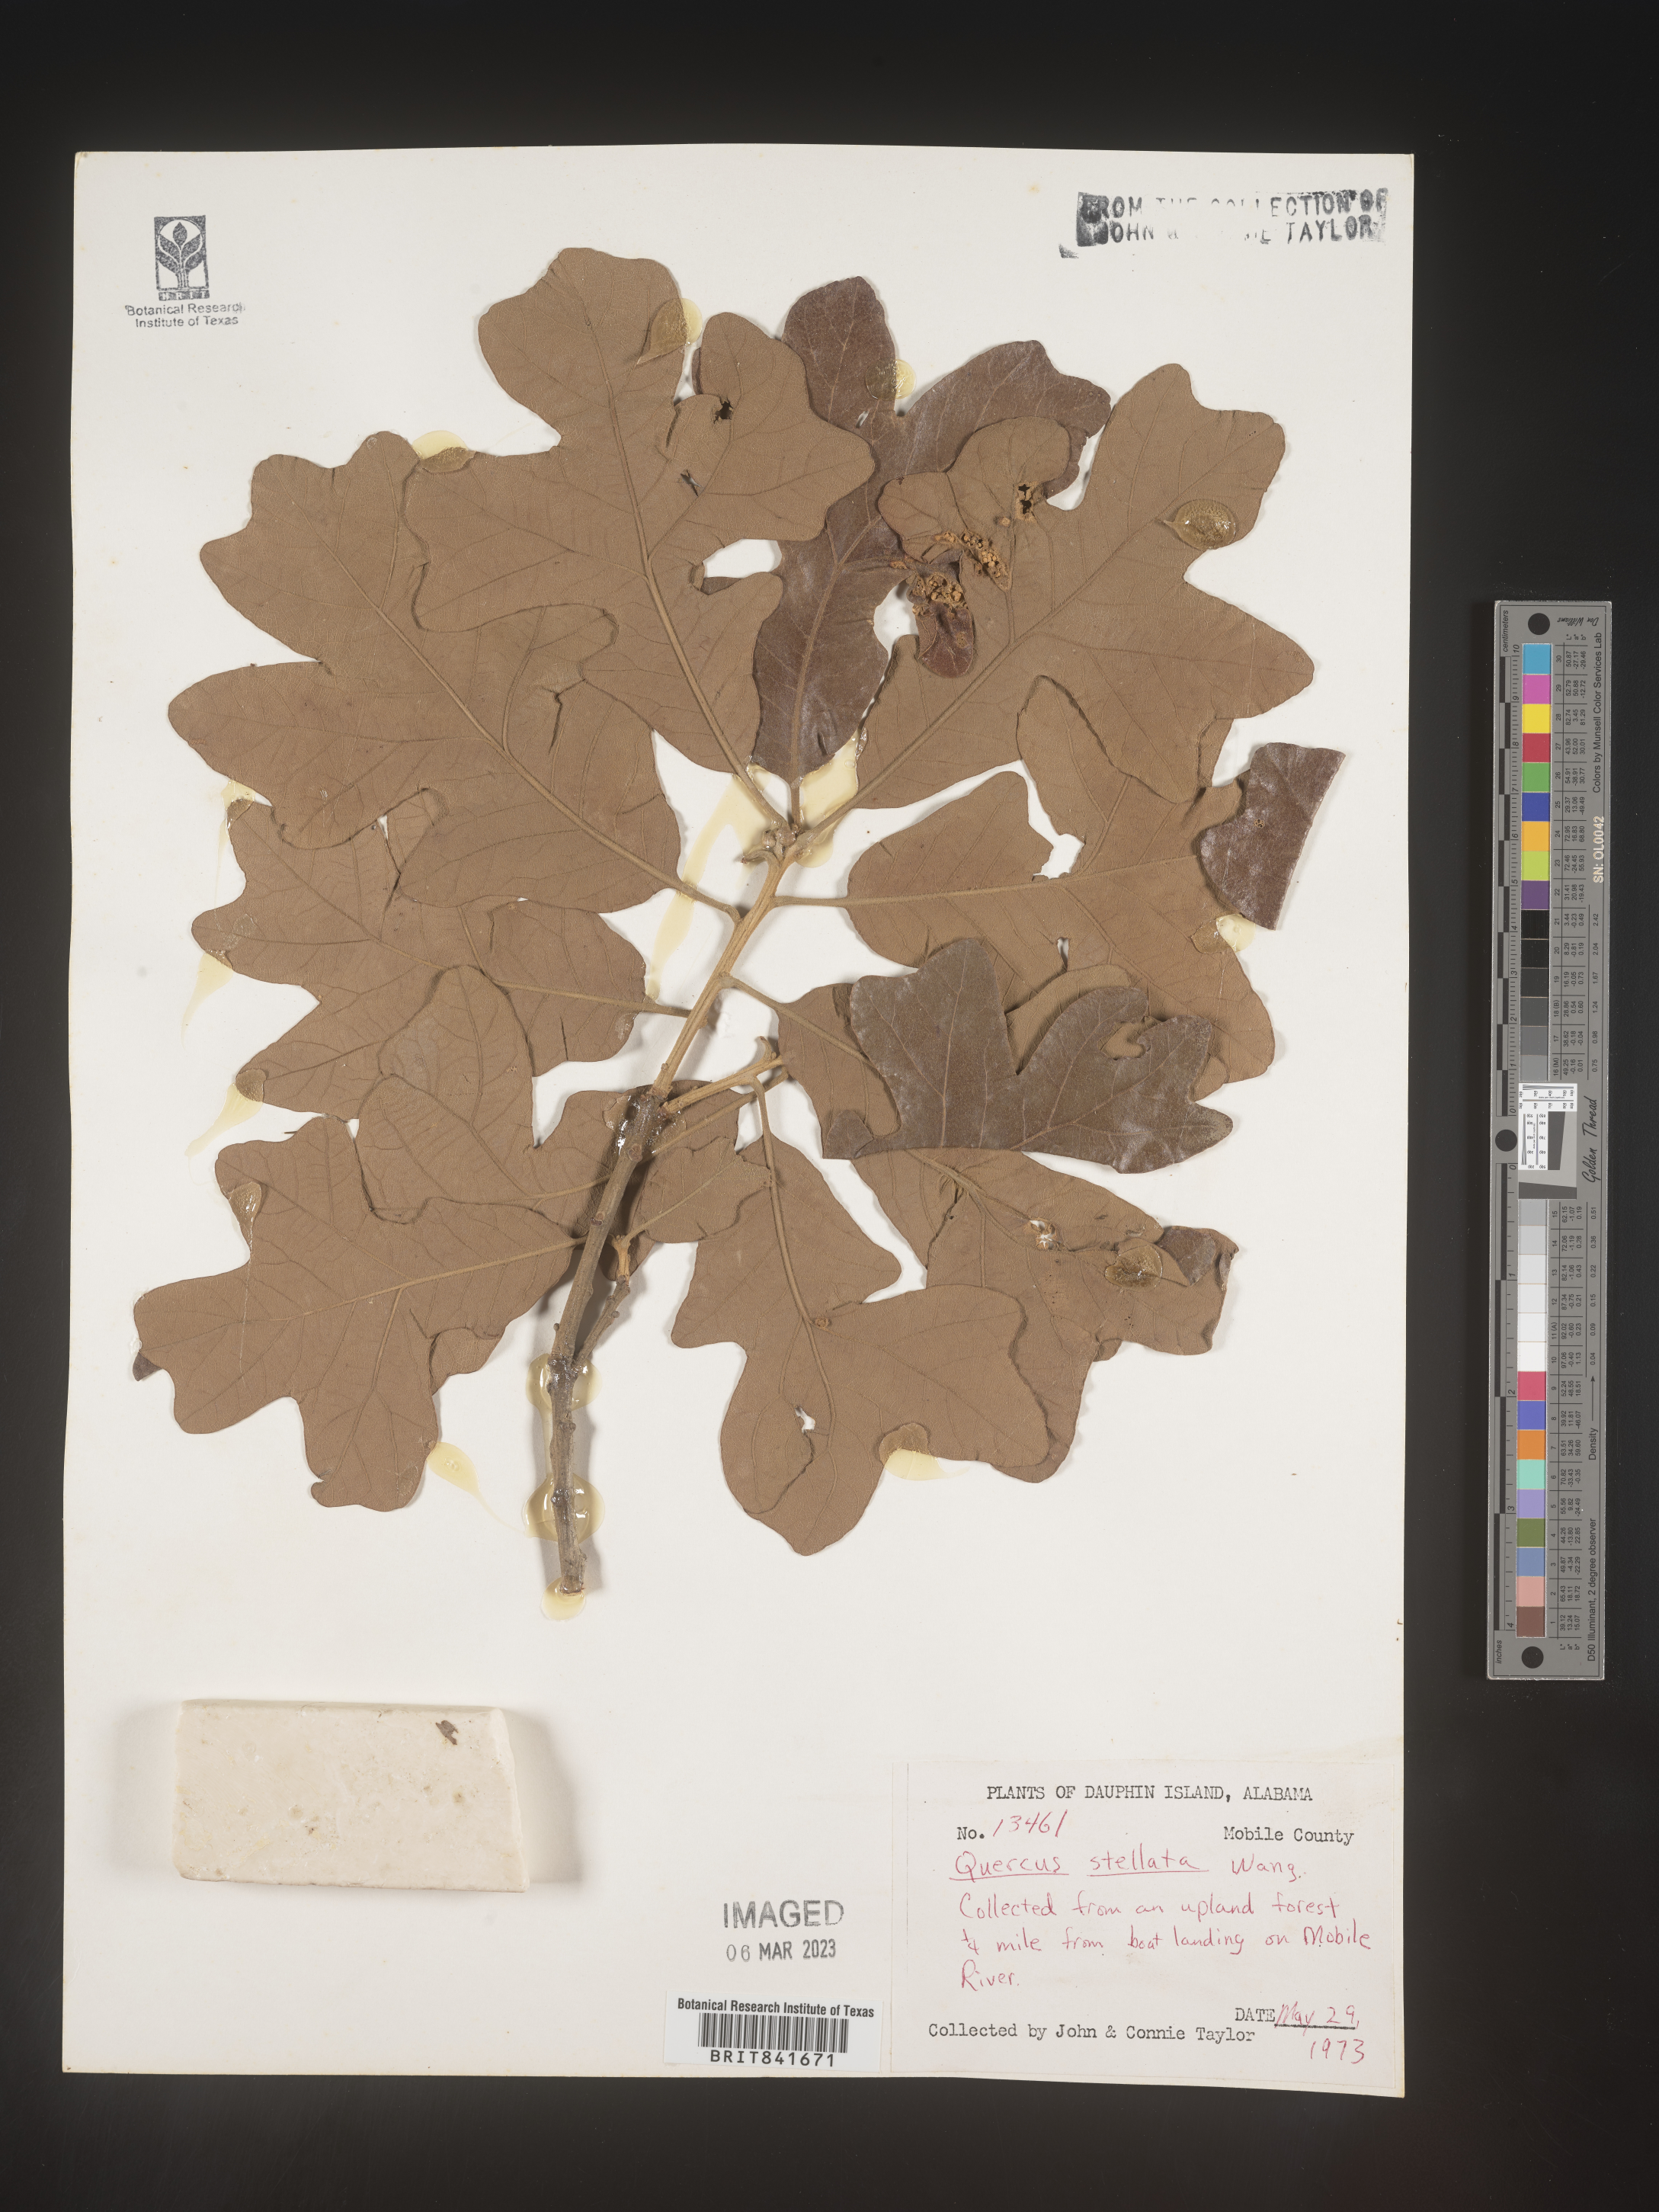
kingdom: Plantae
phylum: Tracheophyta
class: Magnoliopsida
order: Fagales
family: Fagaceae
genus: Quercus
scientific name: Quercus stellata
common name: Post oak
